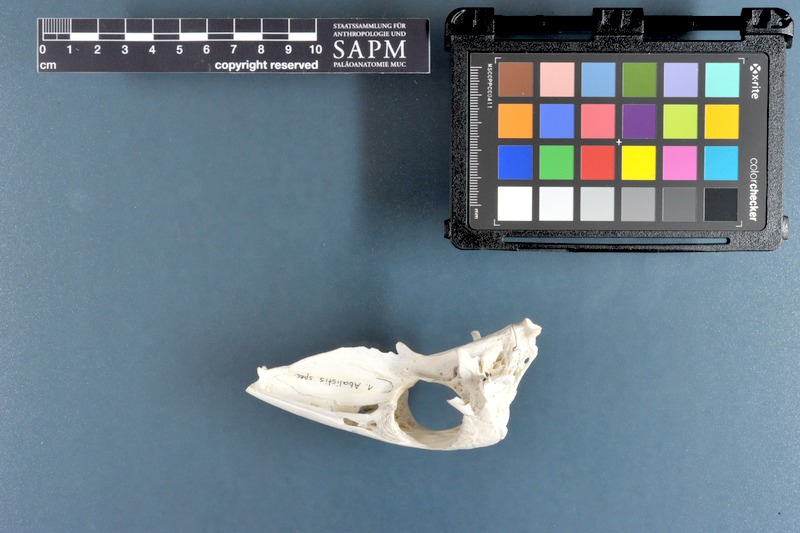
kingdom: Animalia
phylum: Chordata
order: Tetraodontiformes
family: Balistidae
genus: Abalistes
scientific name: Abalistes
